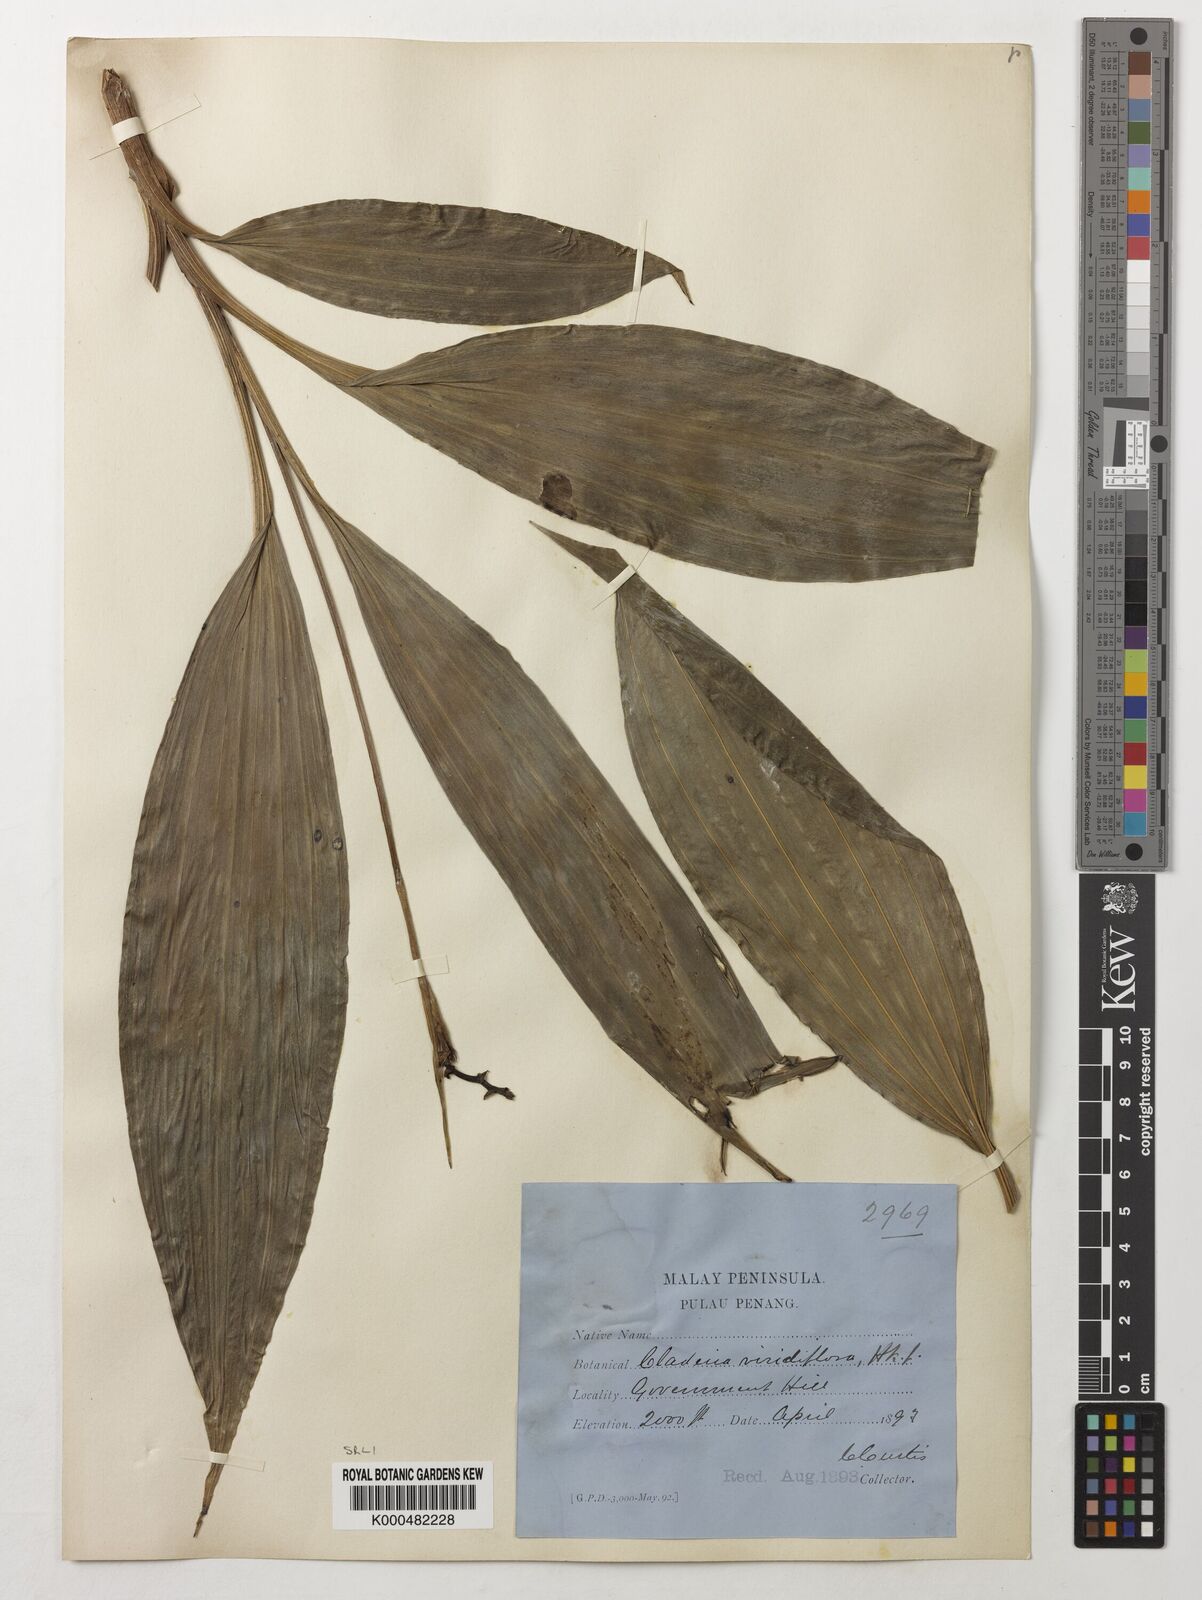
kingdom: Plantae
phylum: Tracheophyta
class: Liliopsida
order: Asparagales
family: Orchidaceae
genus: Claderia
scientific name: Claderia
